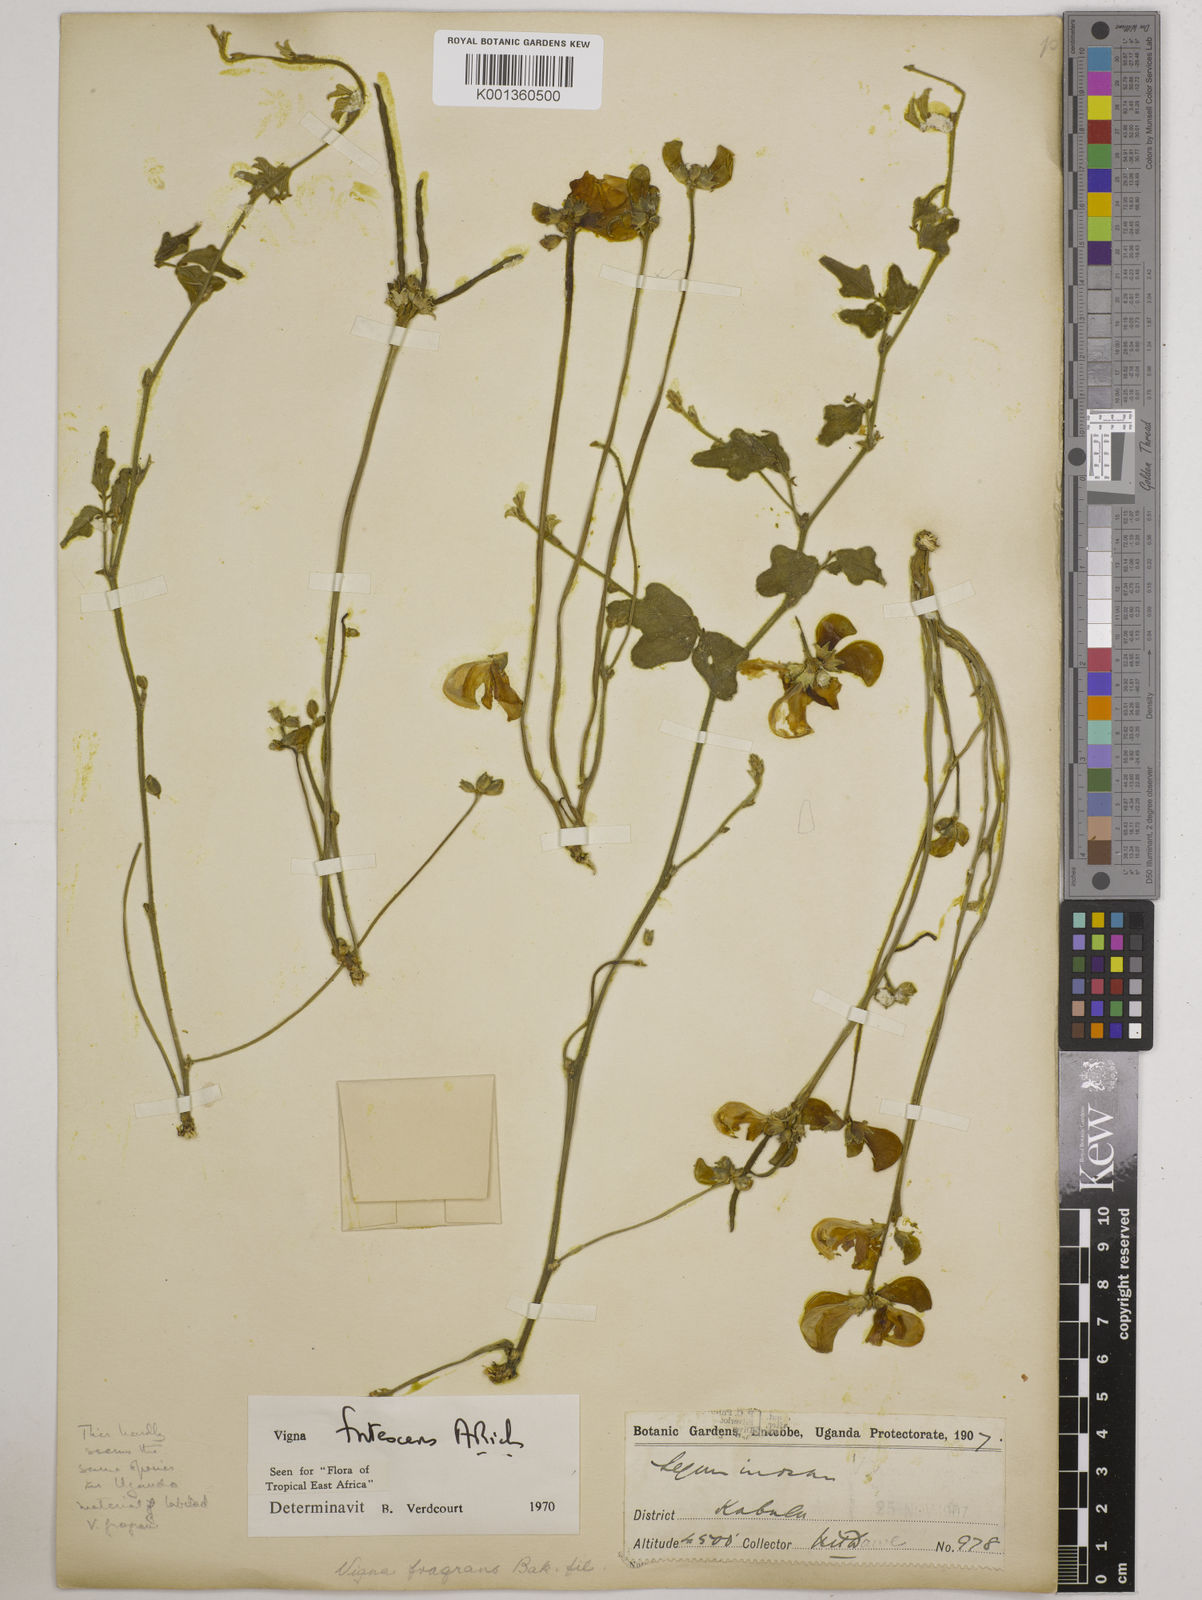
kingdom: Plantae
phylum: Tracheophyta
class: Magnoliopsida
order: Fabales
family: Fabaceae
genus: Vigna
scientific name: Vigna frutescens
